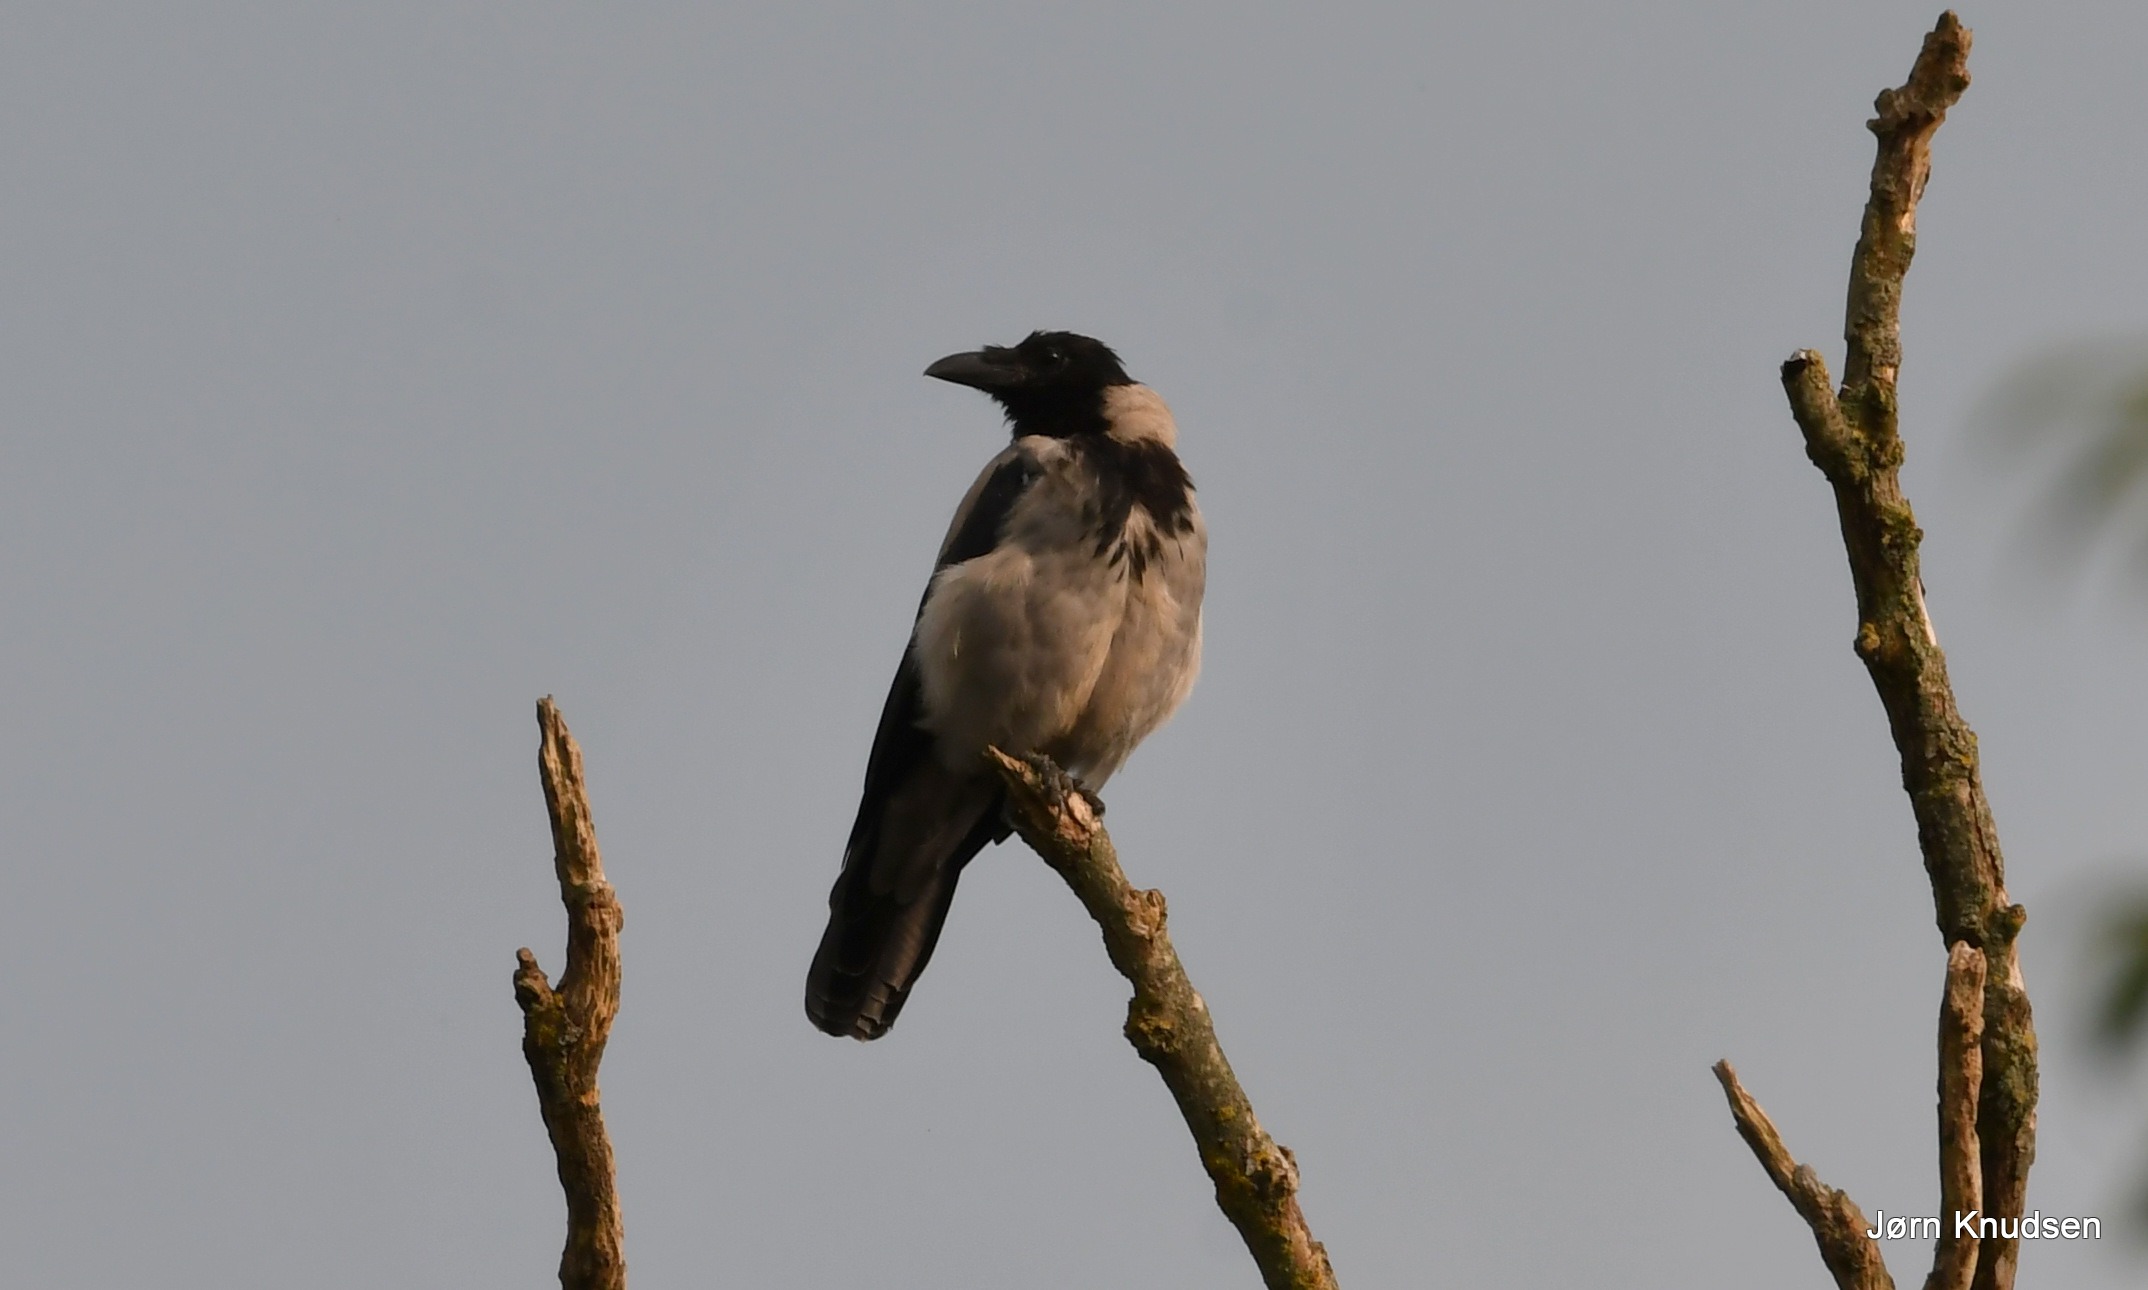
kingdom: Animalia
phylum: Chordata
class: Aves
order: Passeriformes
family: Corvidae
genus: Corvus
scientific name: Corvus cornix
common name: Gråkrage
